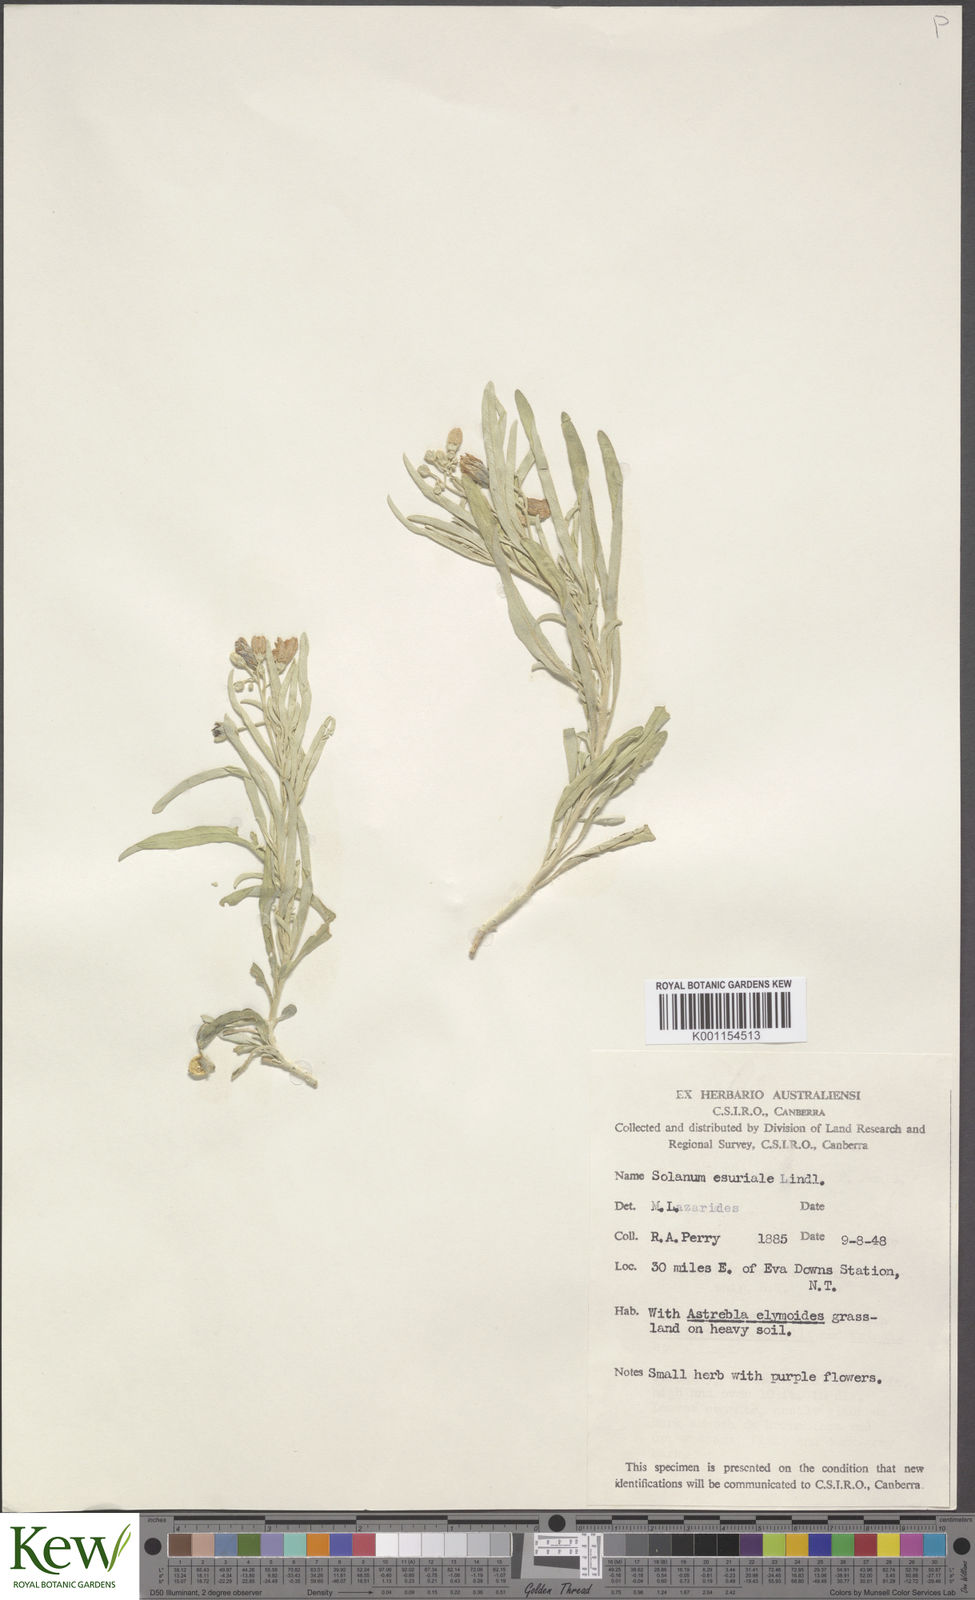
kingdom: Plantae
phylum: Tracheophyta
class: Magnoliopsida
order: Solanales
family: Solanaceae
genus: Solanum
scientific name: Solanum esuriale
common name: Wild tomato
